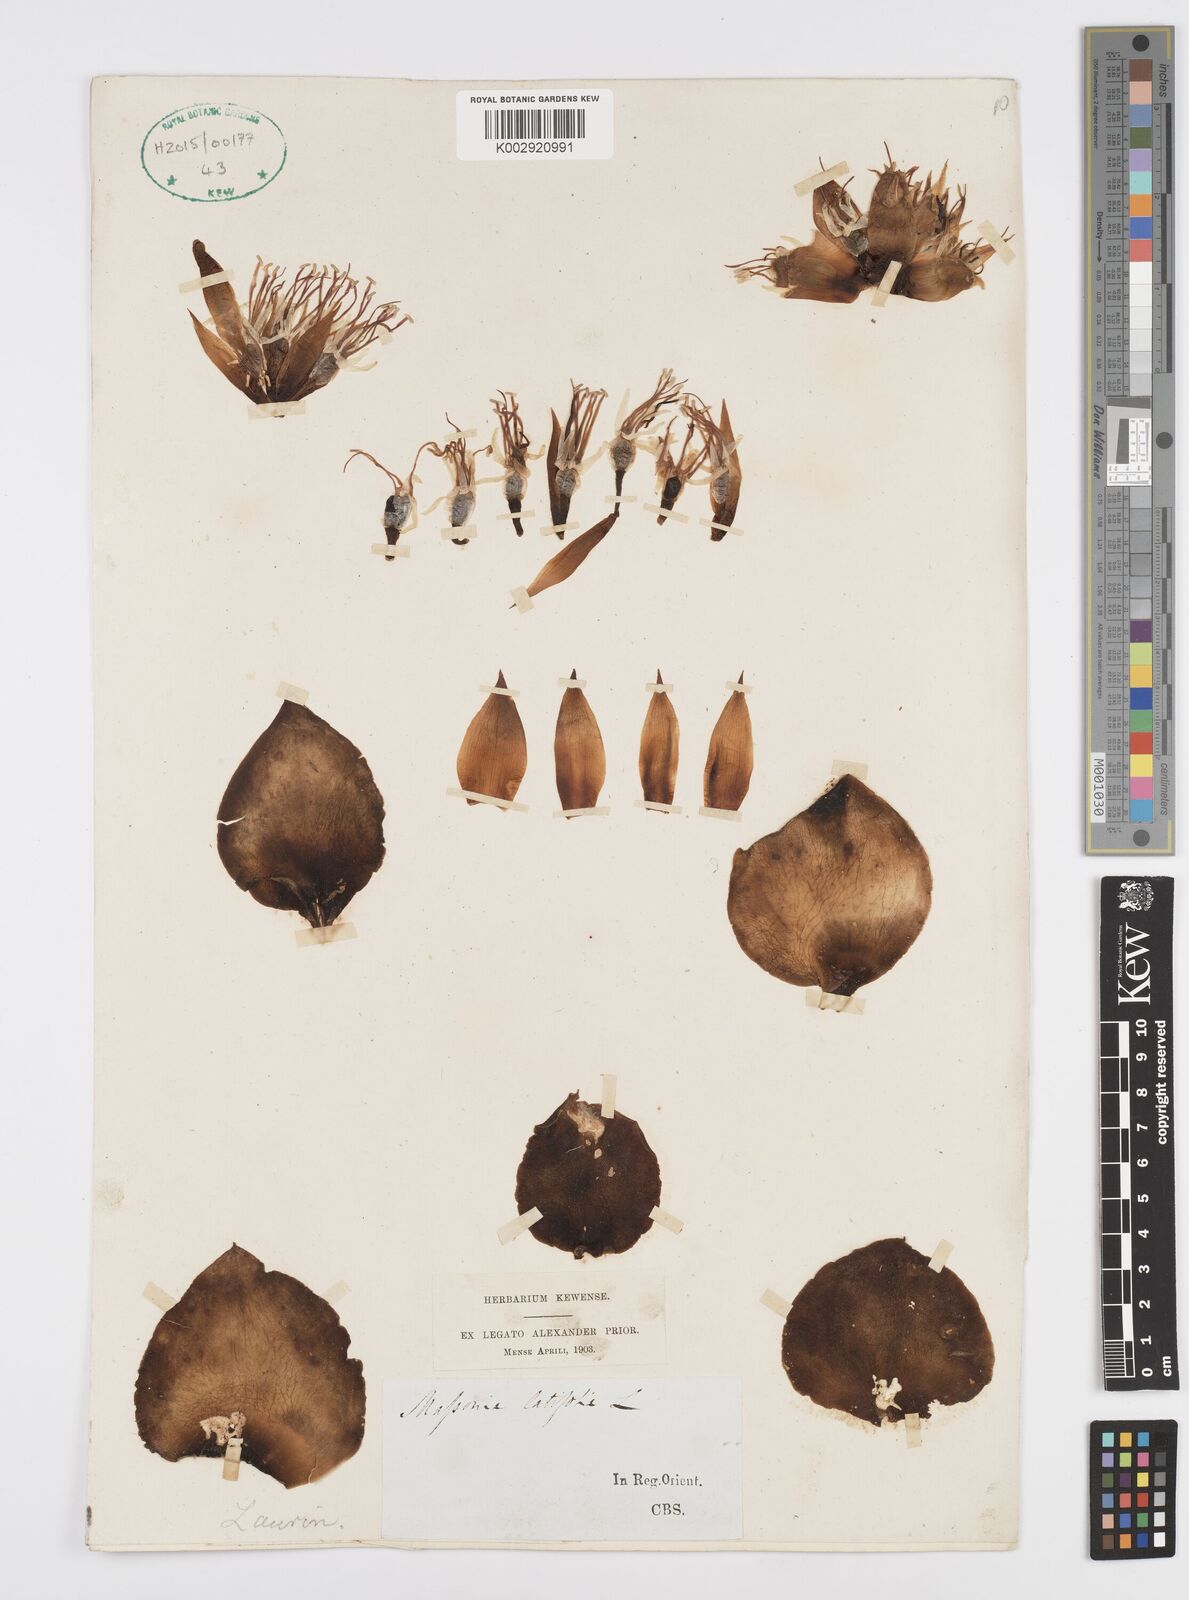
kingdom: Plantae
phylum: Tracheophyta
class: Liliopsida
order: Asparagales
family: Asparagaceae
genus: Massonia
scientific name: Massonia
